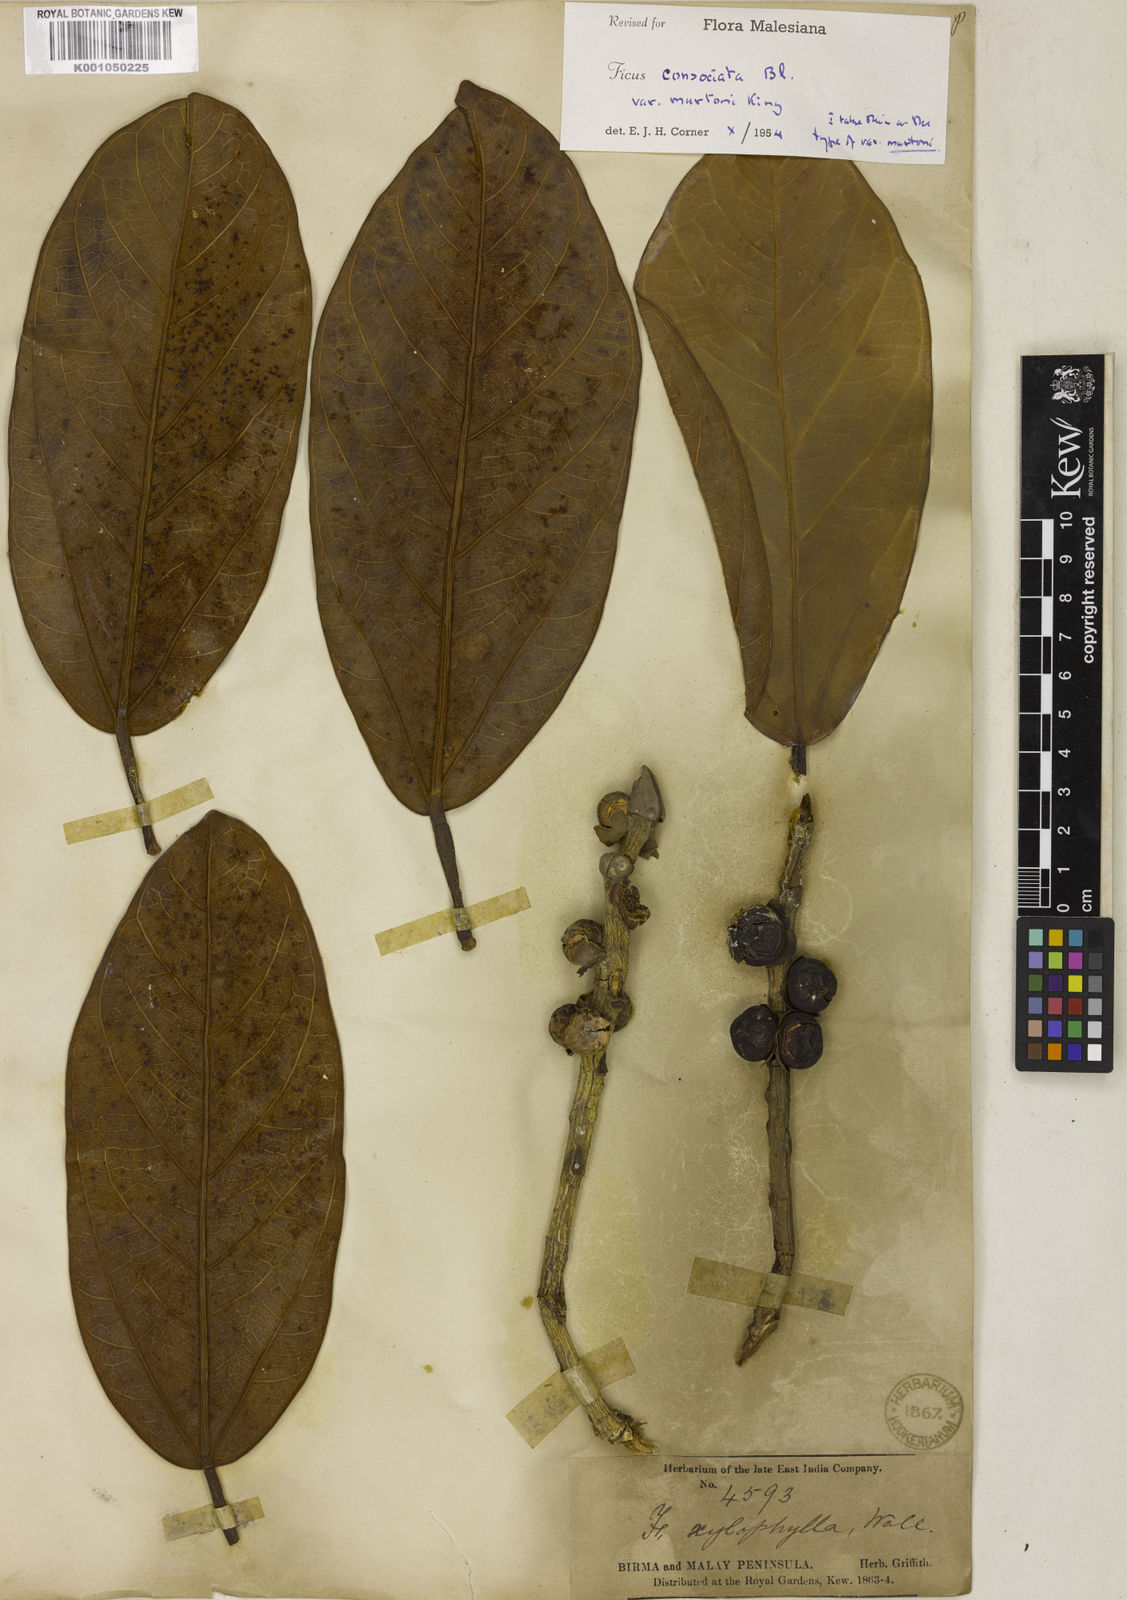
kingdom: Plantae
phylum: Tracheophyta
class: Magnoliopsida
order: Rosales
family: Moraceae
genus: Ficus
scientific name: Ficus consociata
